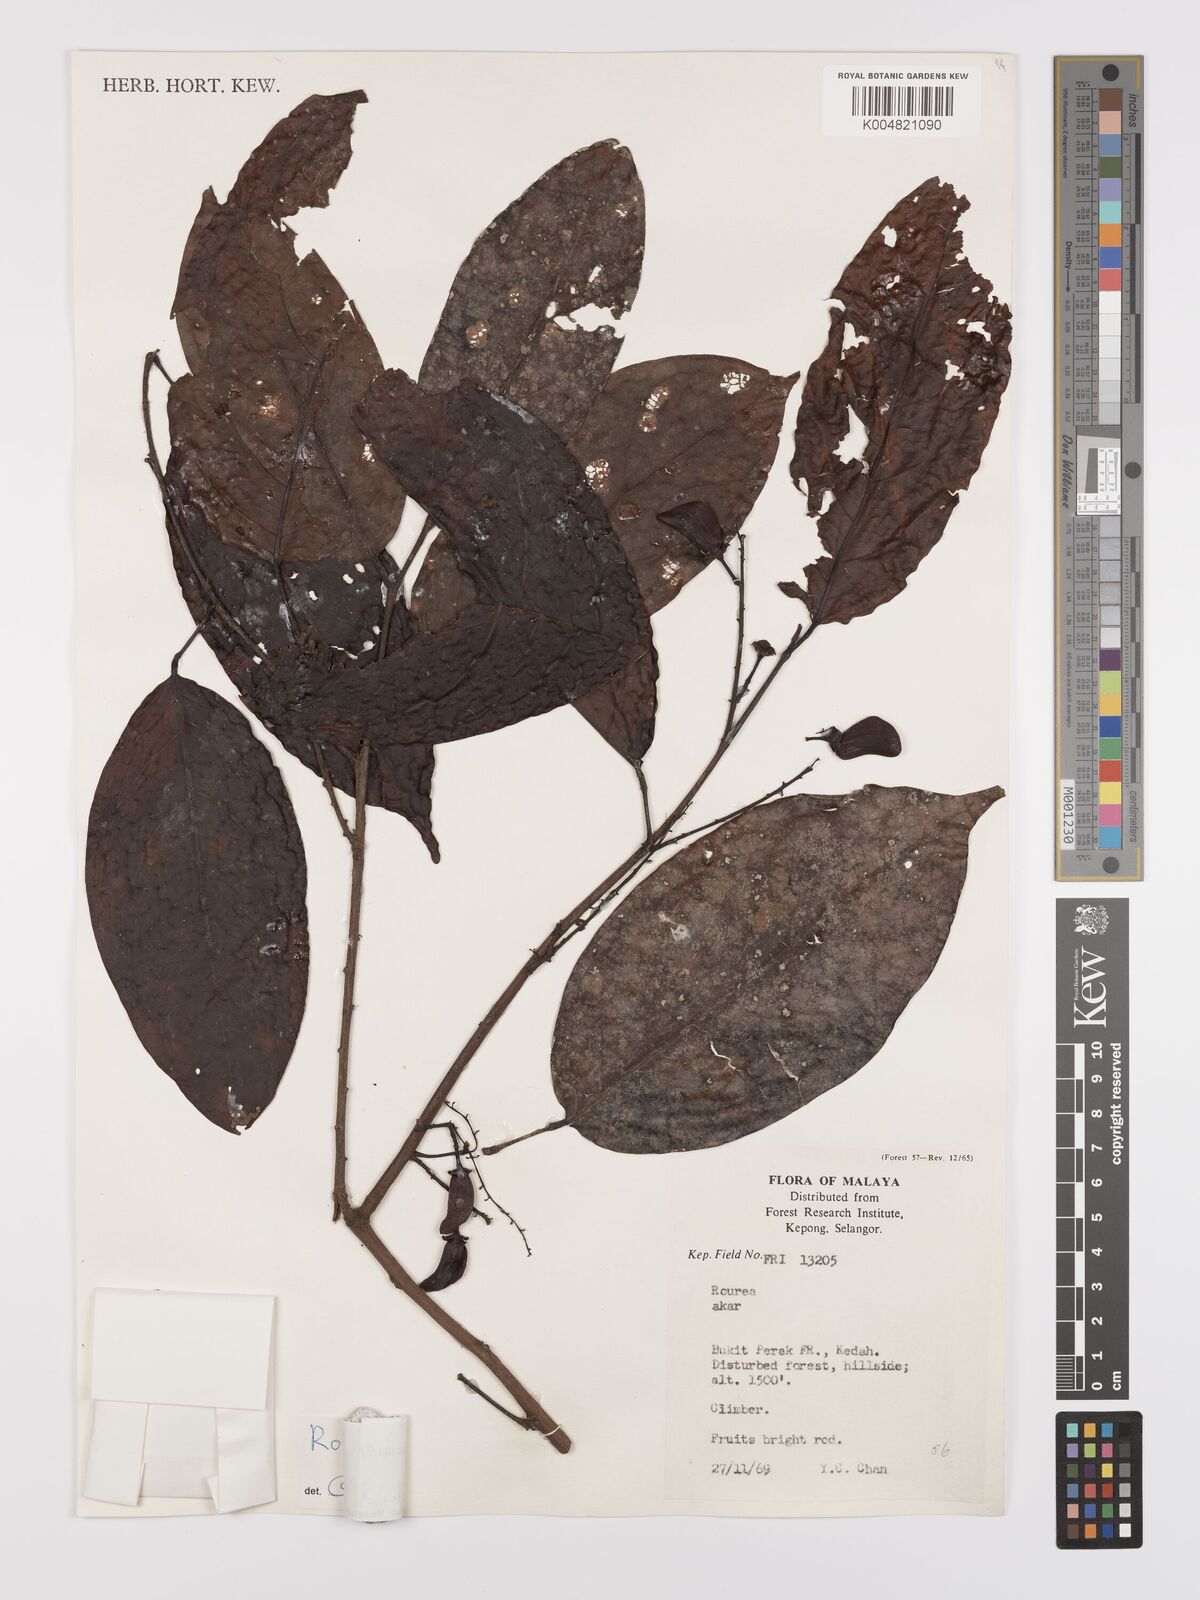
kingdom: Plantae
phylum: Tracheophyta
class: Magnoliopsida
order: Oxalidales
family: Connaraceae
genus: Rourea
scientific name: Rourea minor
